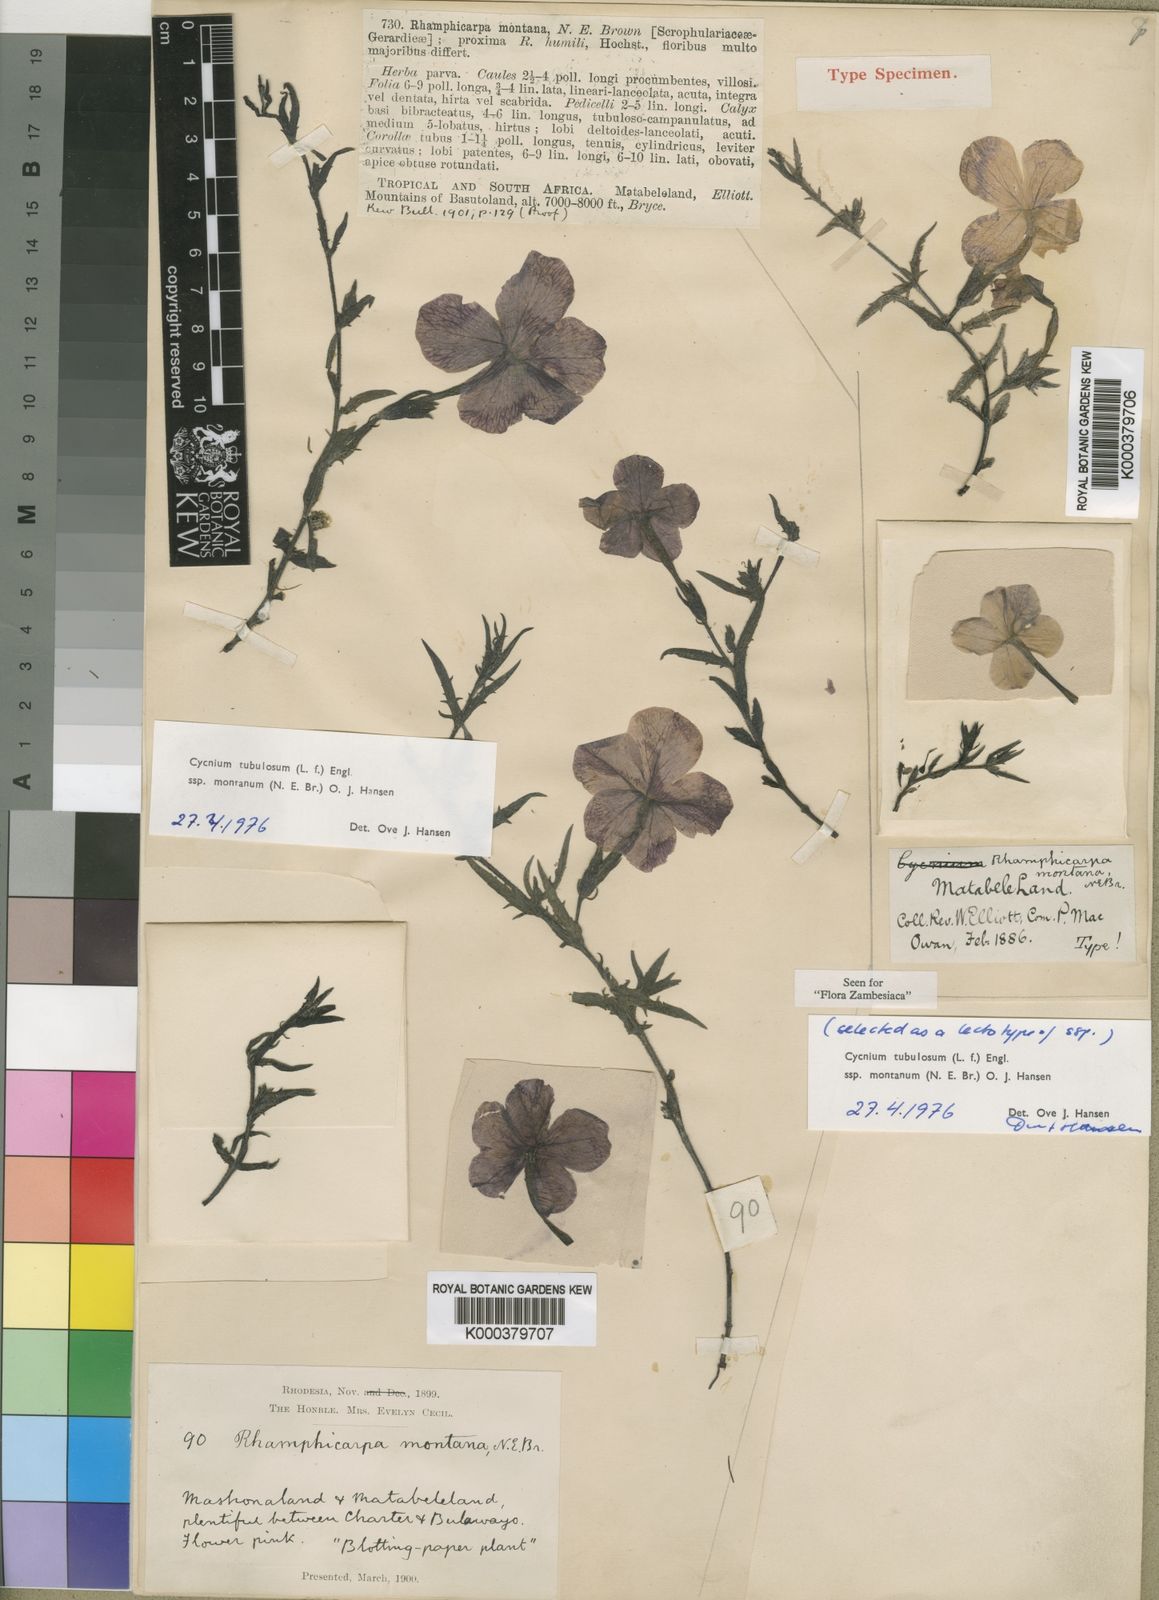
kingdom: Plantae
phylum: Tracheophyta
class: Magnoliopsida
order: Lamiales
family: Orobanchaceae
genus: Cycnium
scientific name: Cycnium tubulosum
